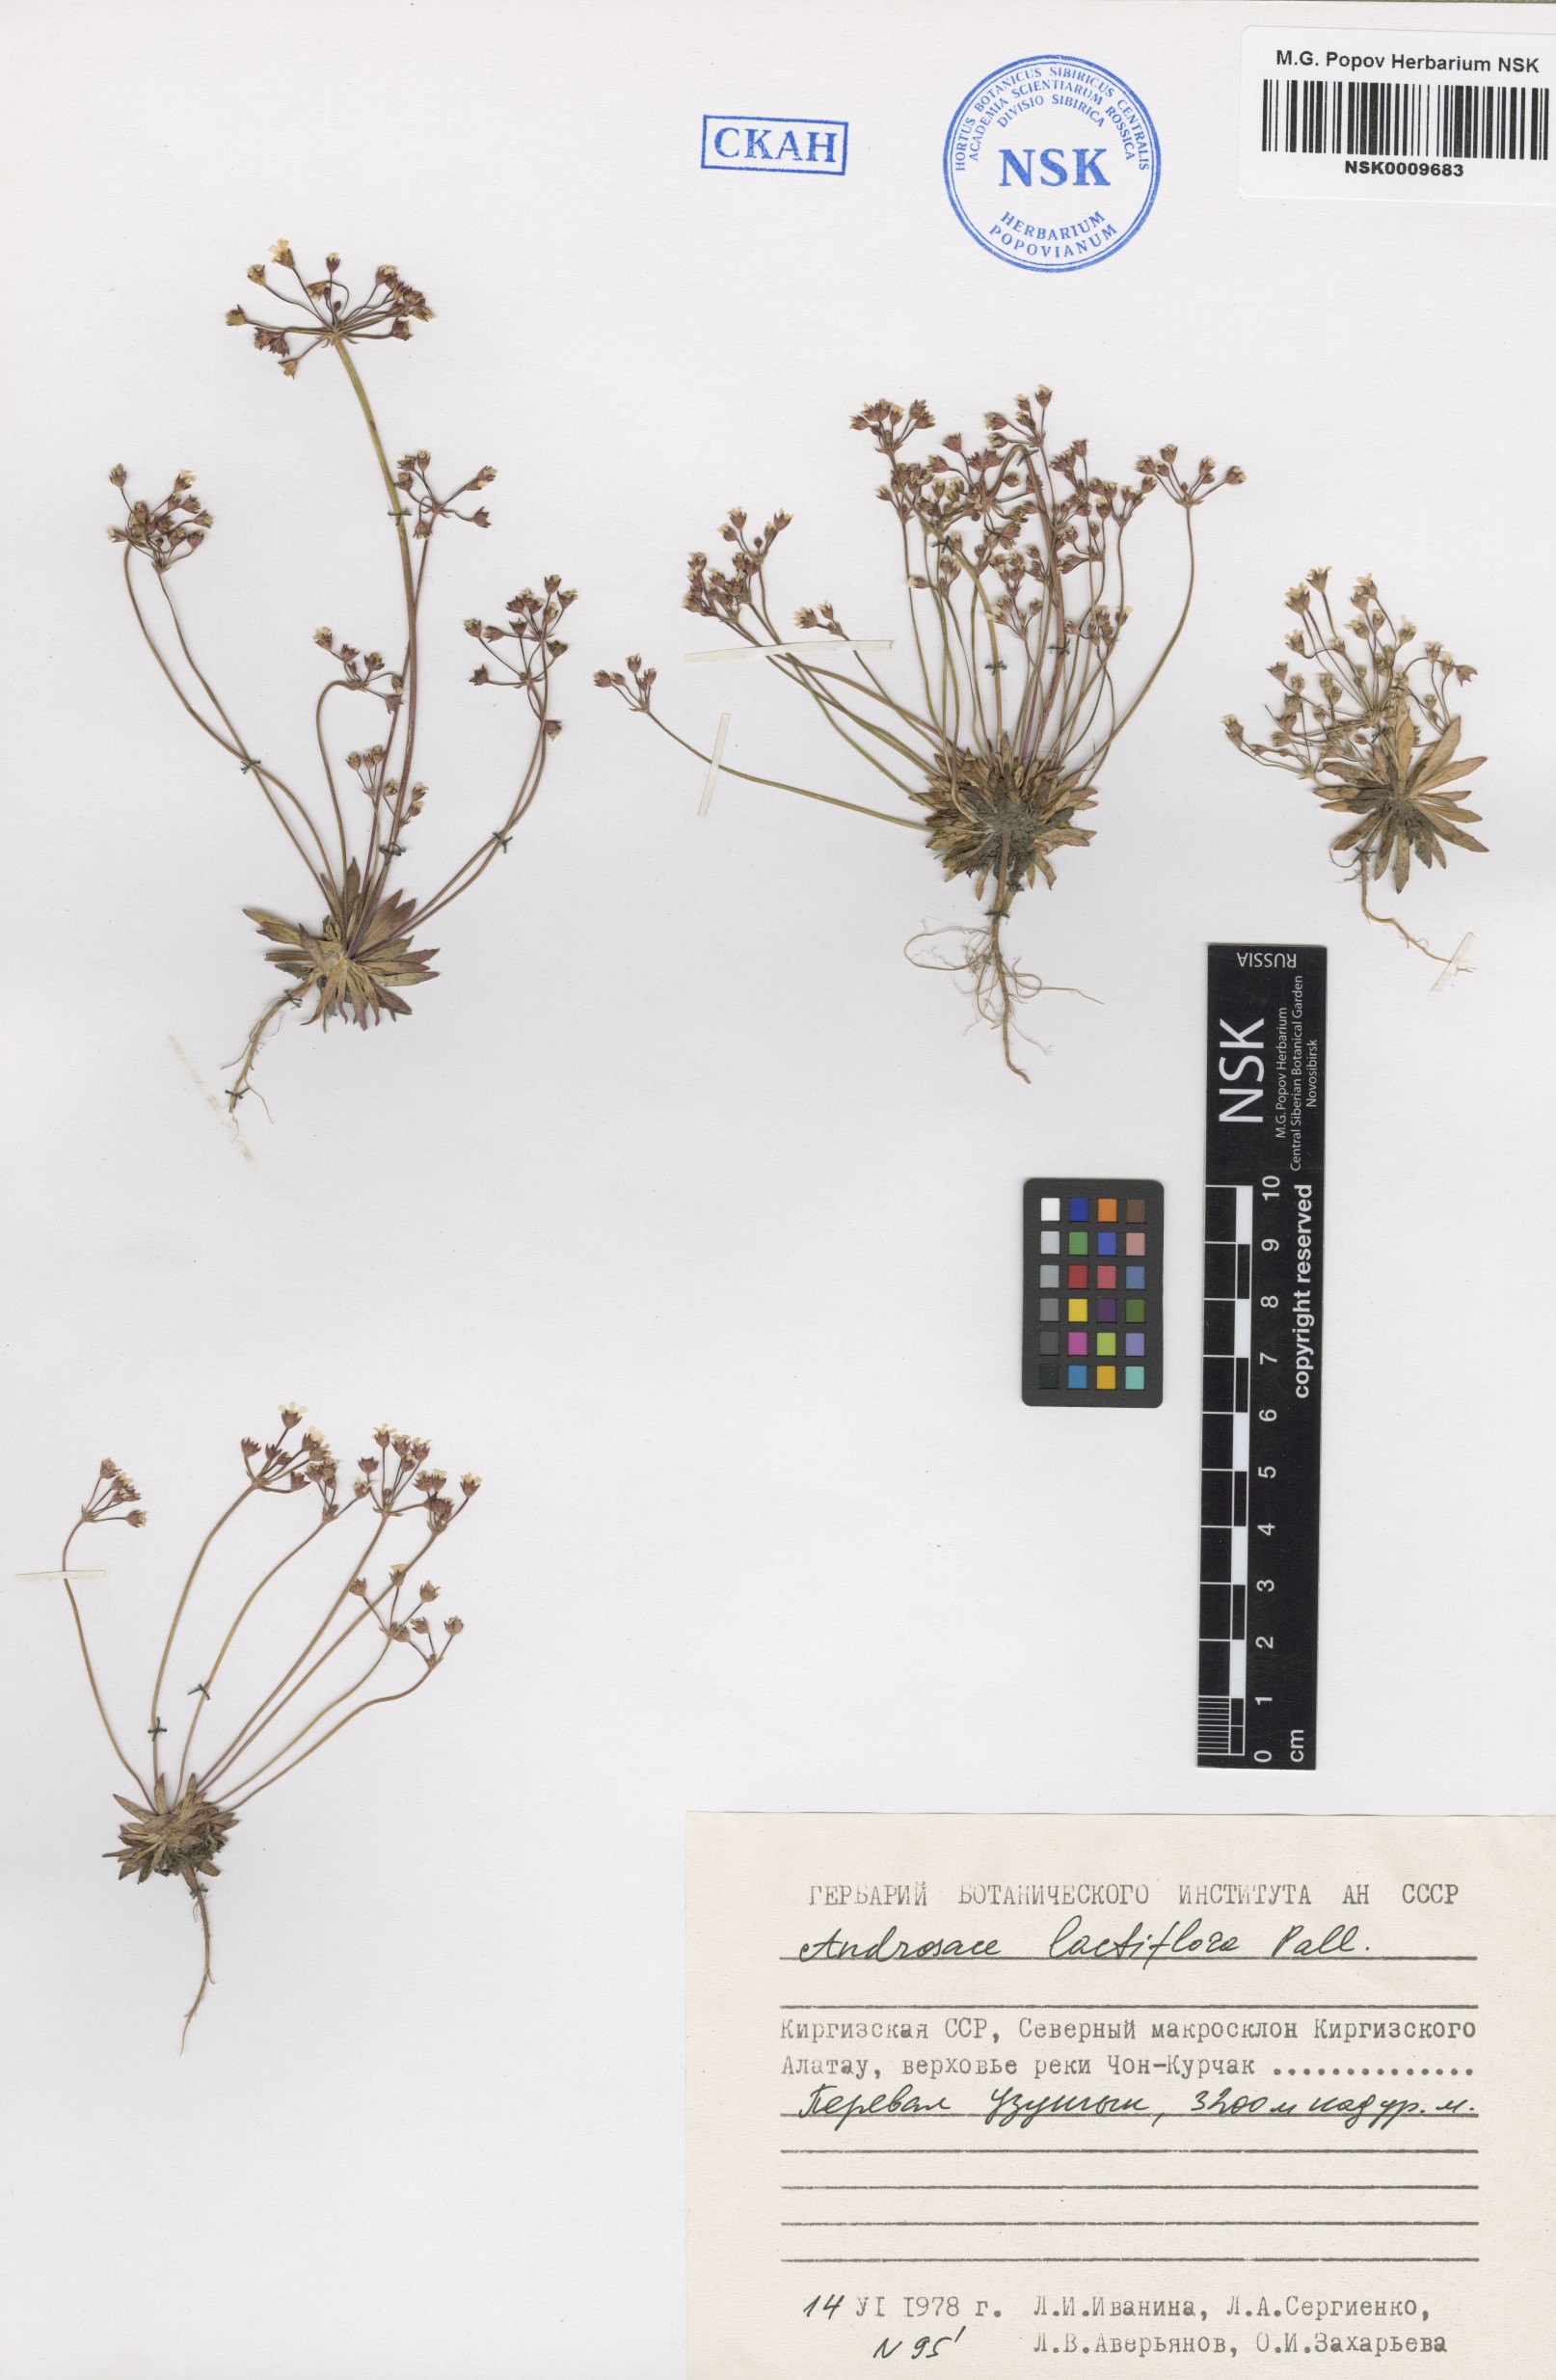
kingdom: Plantae
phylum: Tracheophyta
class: Magnoliopsida
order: Ericales
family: Primulaceae
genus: Androsace
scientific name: Androsace lactiflora
